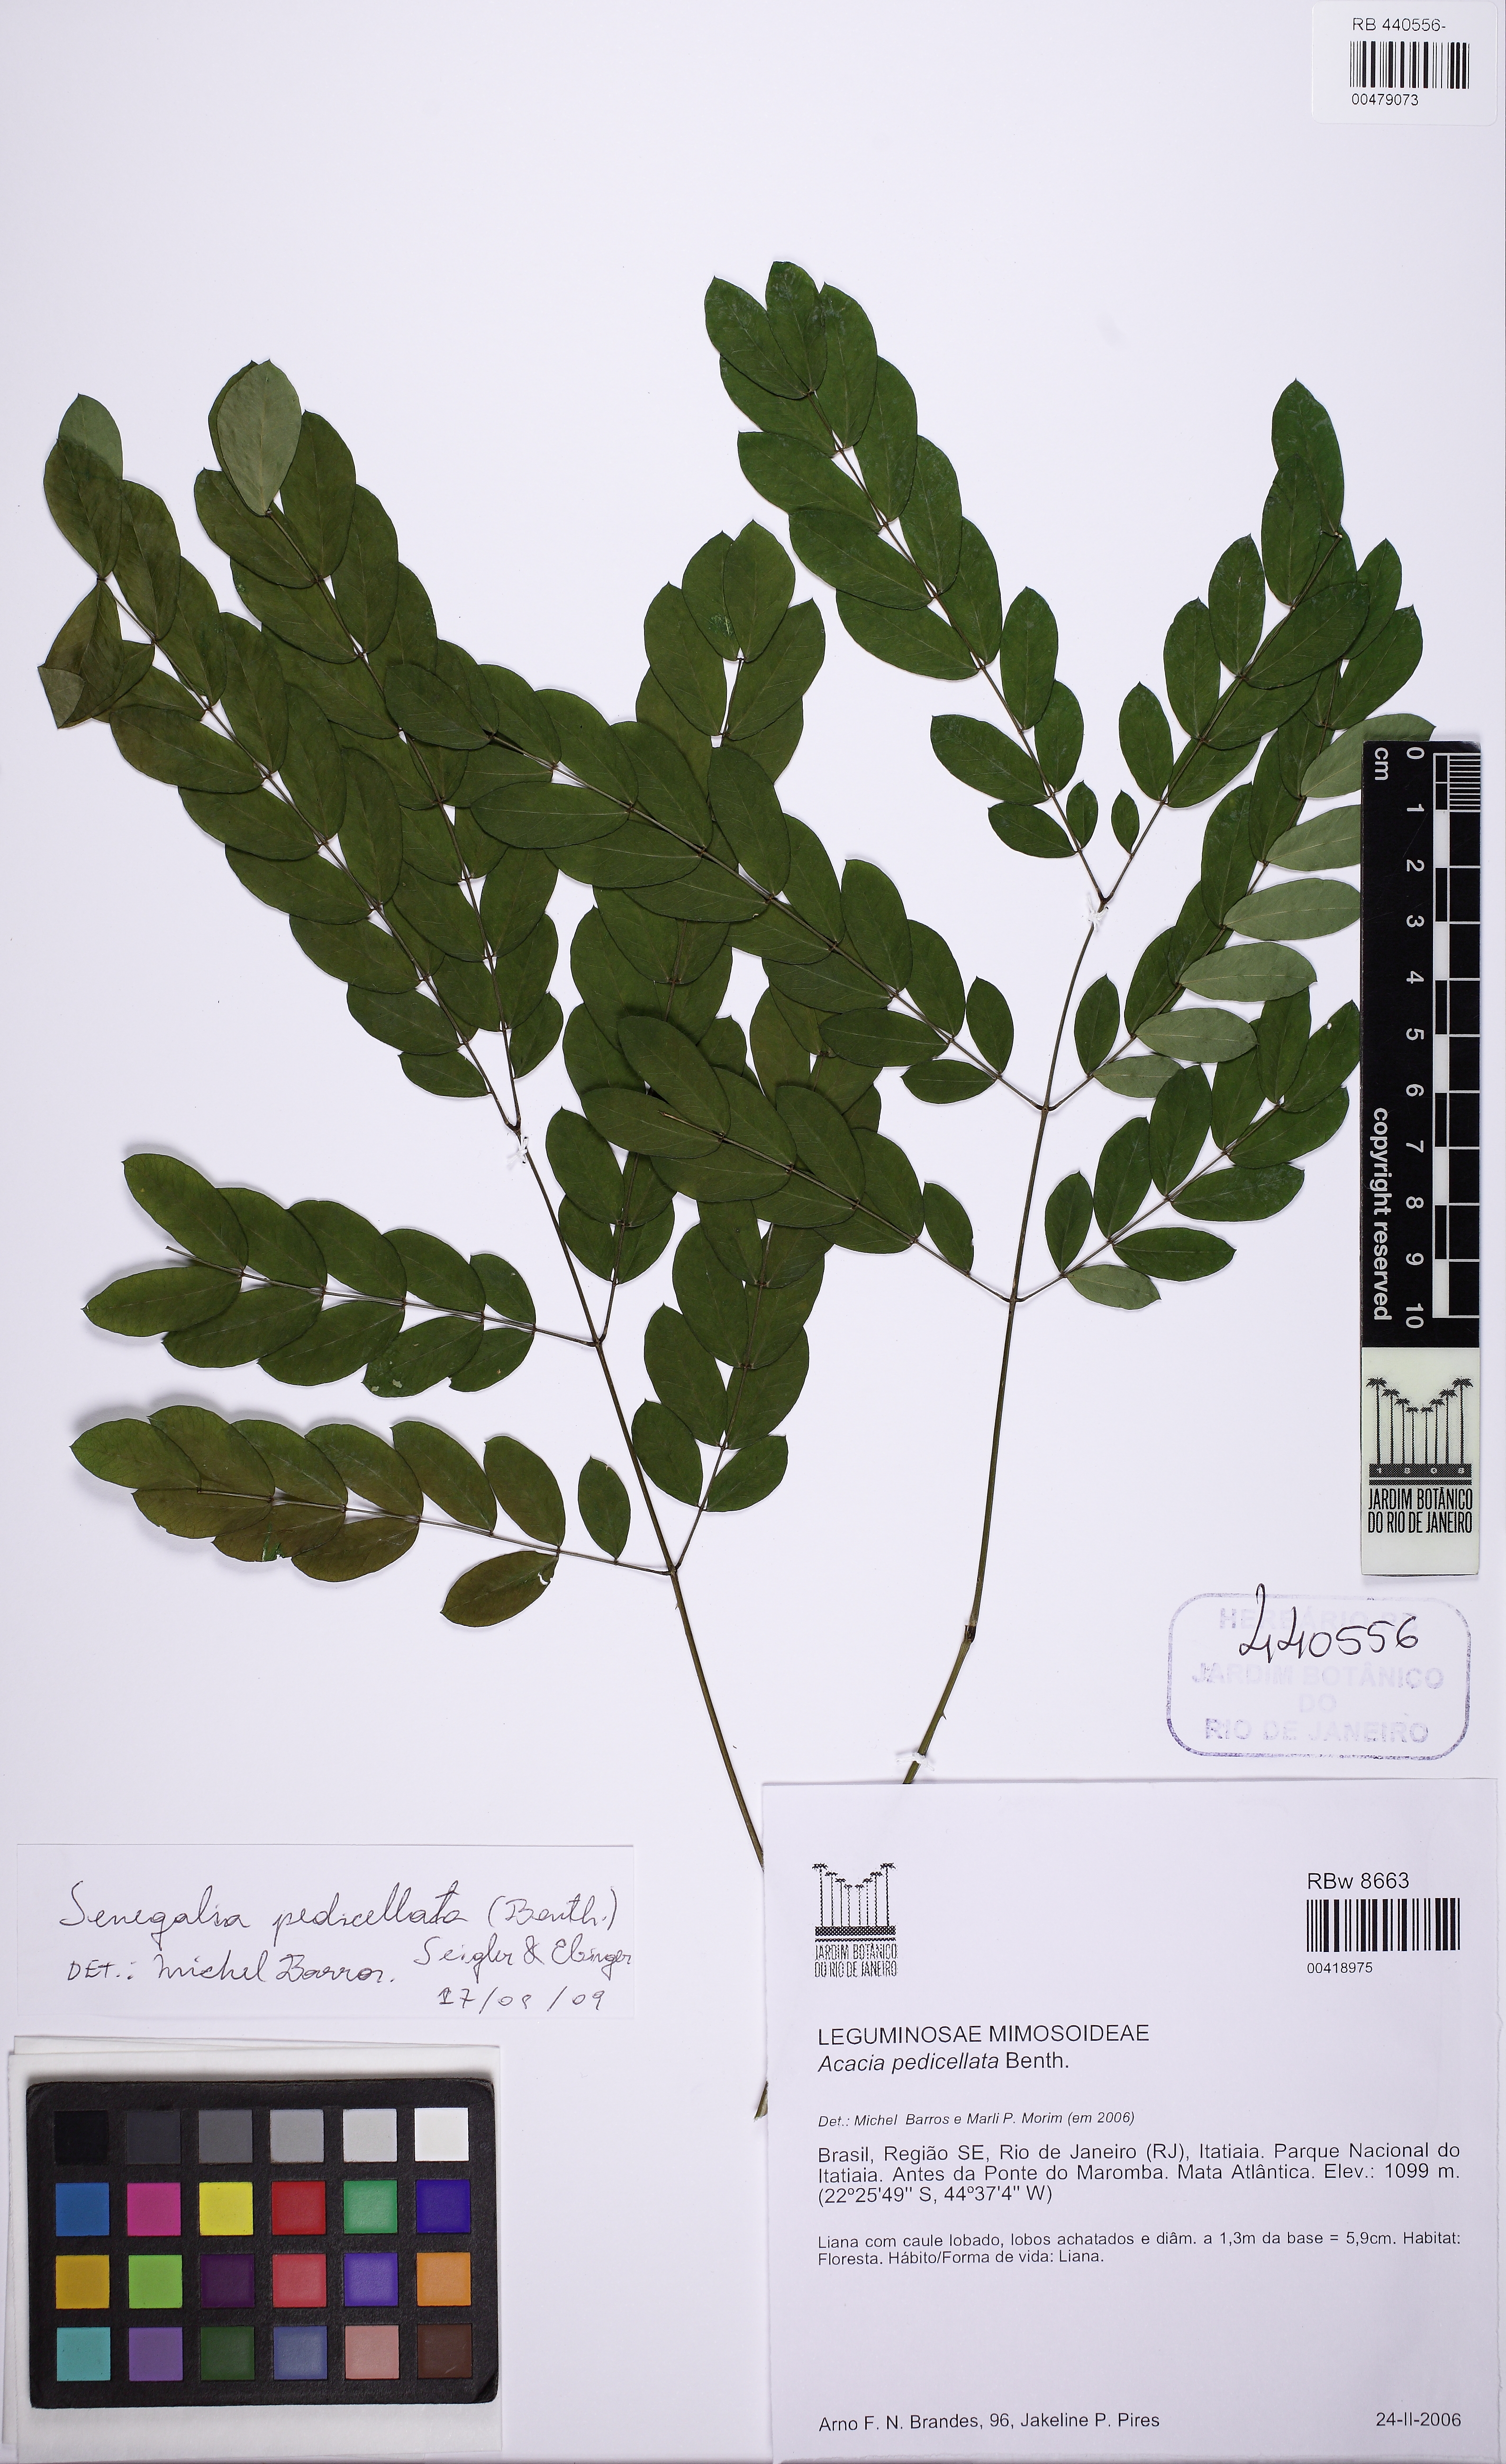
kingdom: Plantae
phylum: Tracheophyta
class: Magnoliopsida
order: Fabales
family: Fabaceae
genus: Senegalia
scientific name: Senegalia pedicellata
